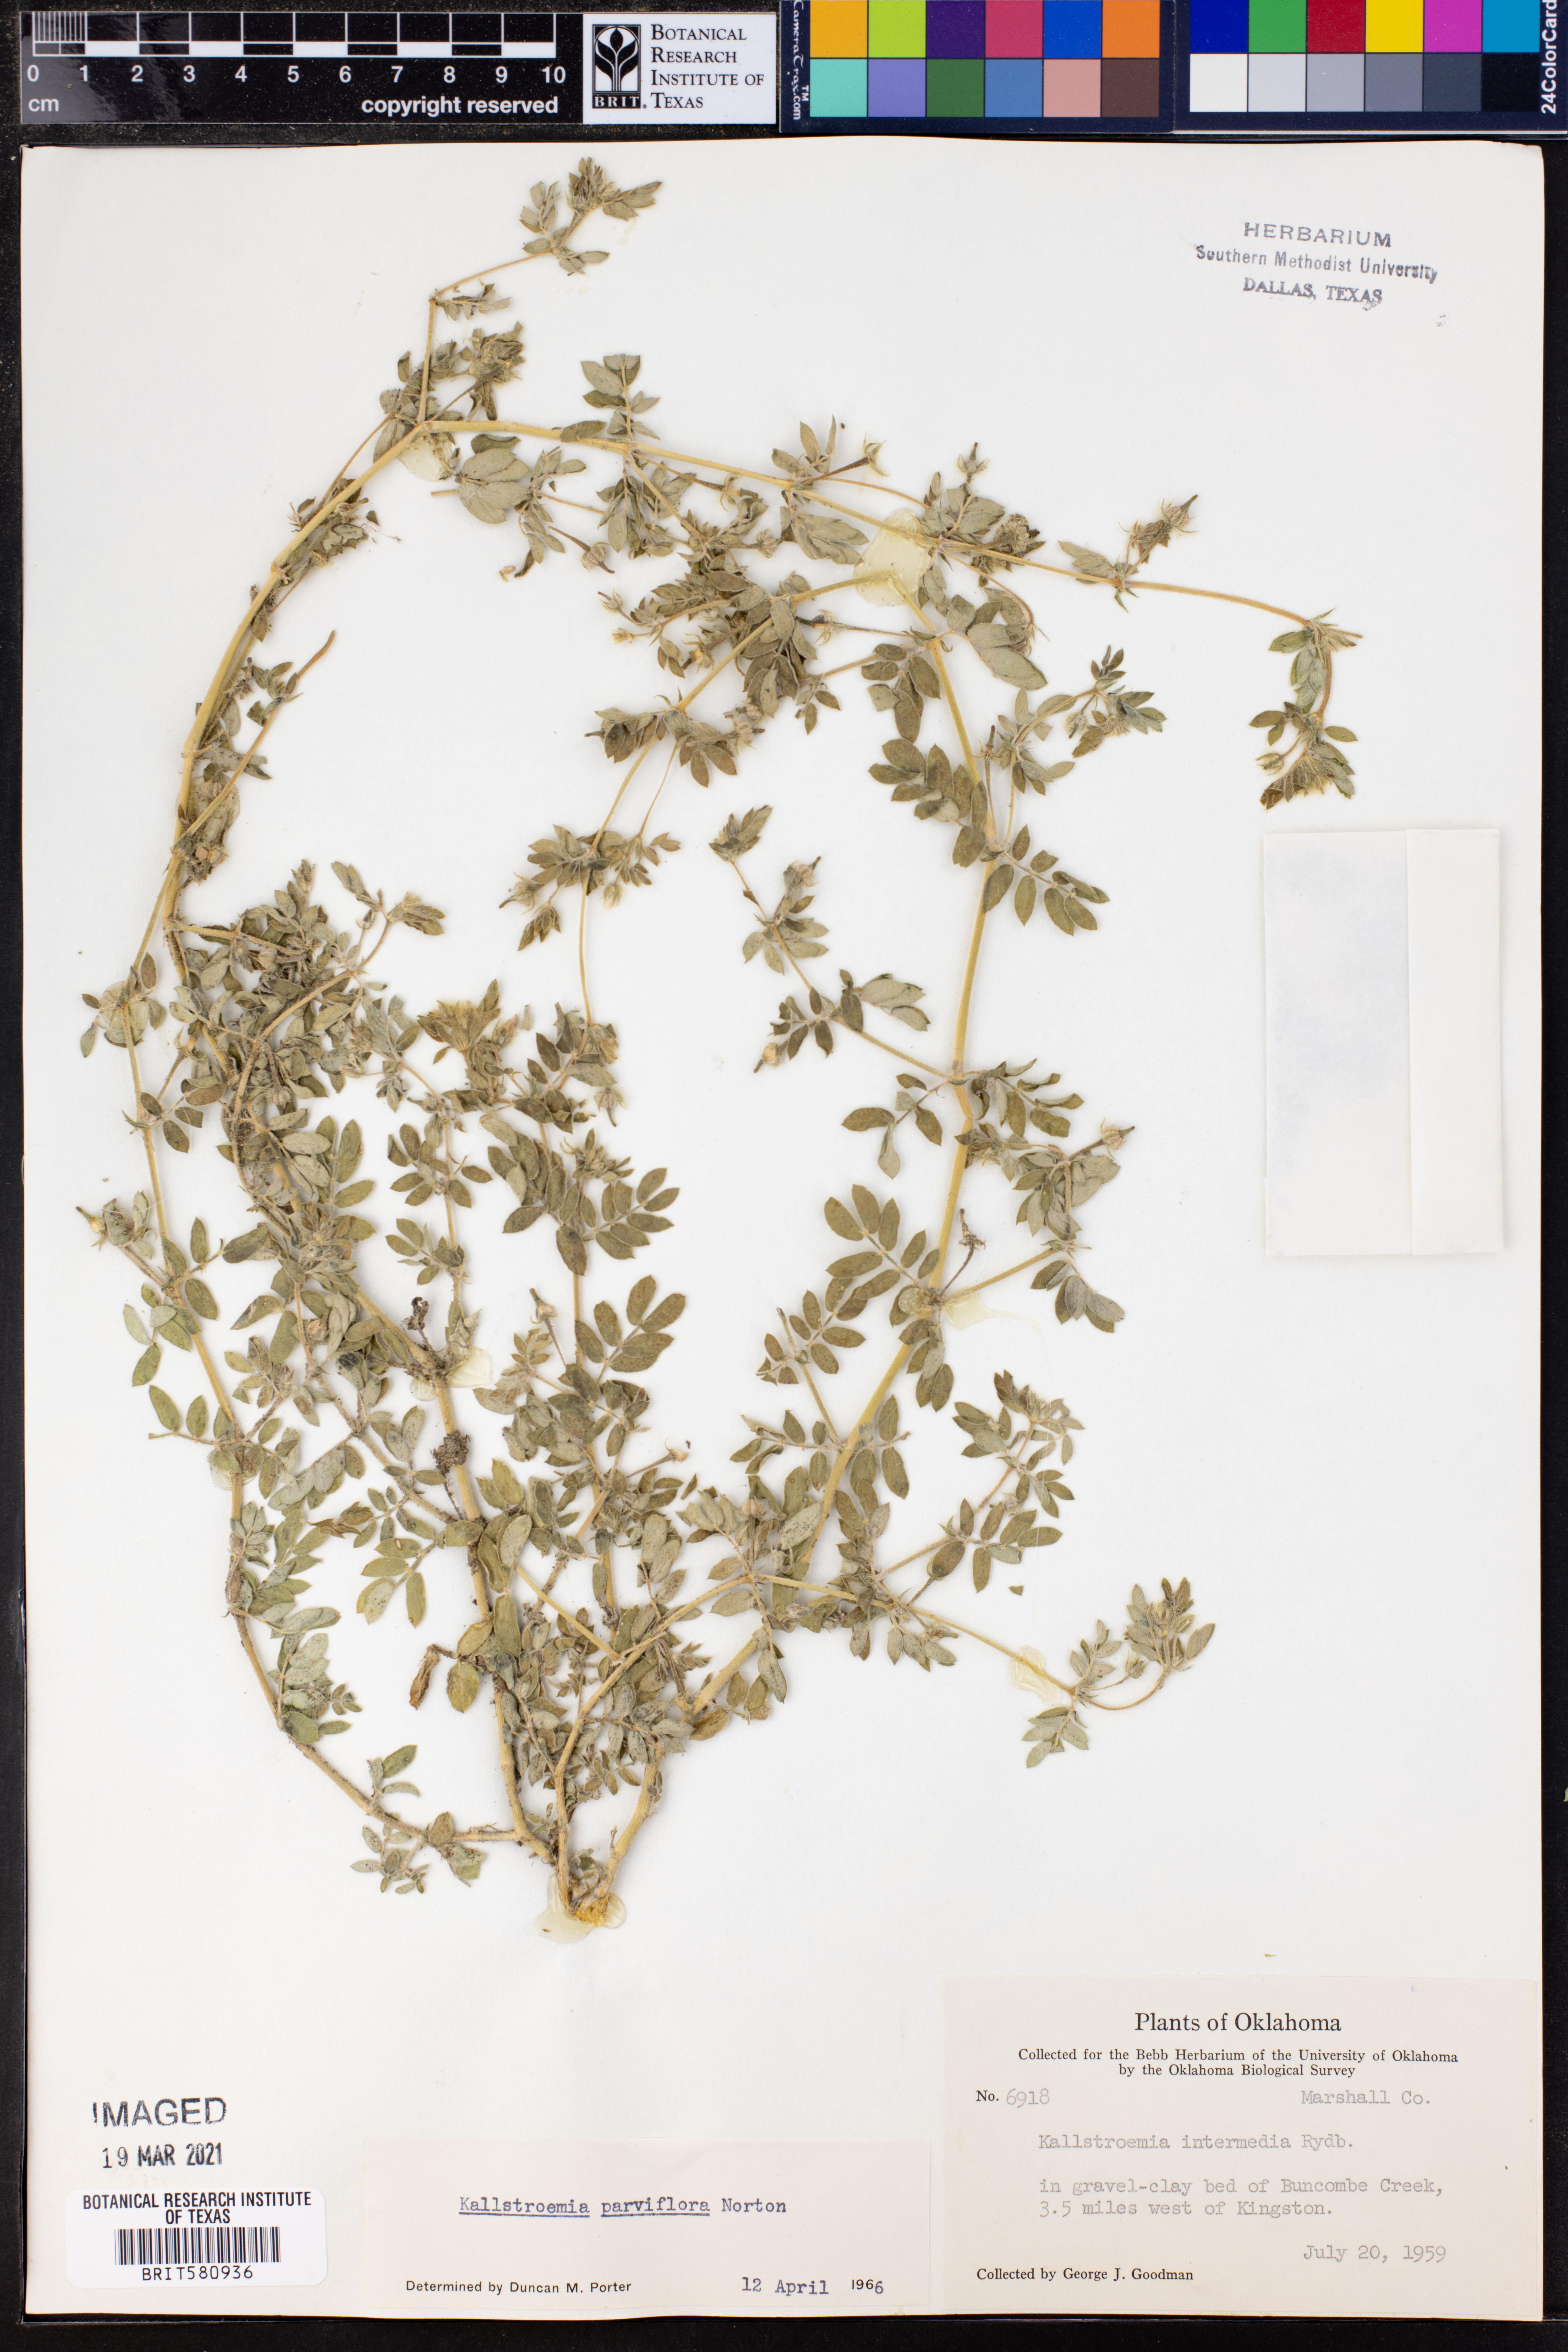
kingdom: Plantae
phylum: Tracheophyta
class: Magnoliopsida
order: Zygophyllales
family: Zygophyllaceae
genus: Kallstroemia
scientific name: Kallstroemia parviflora
